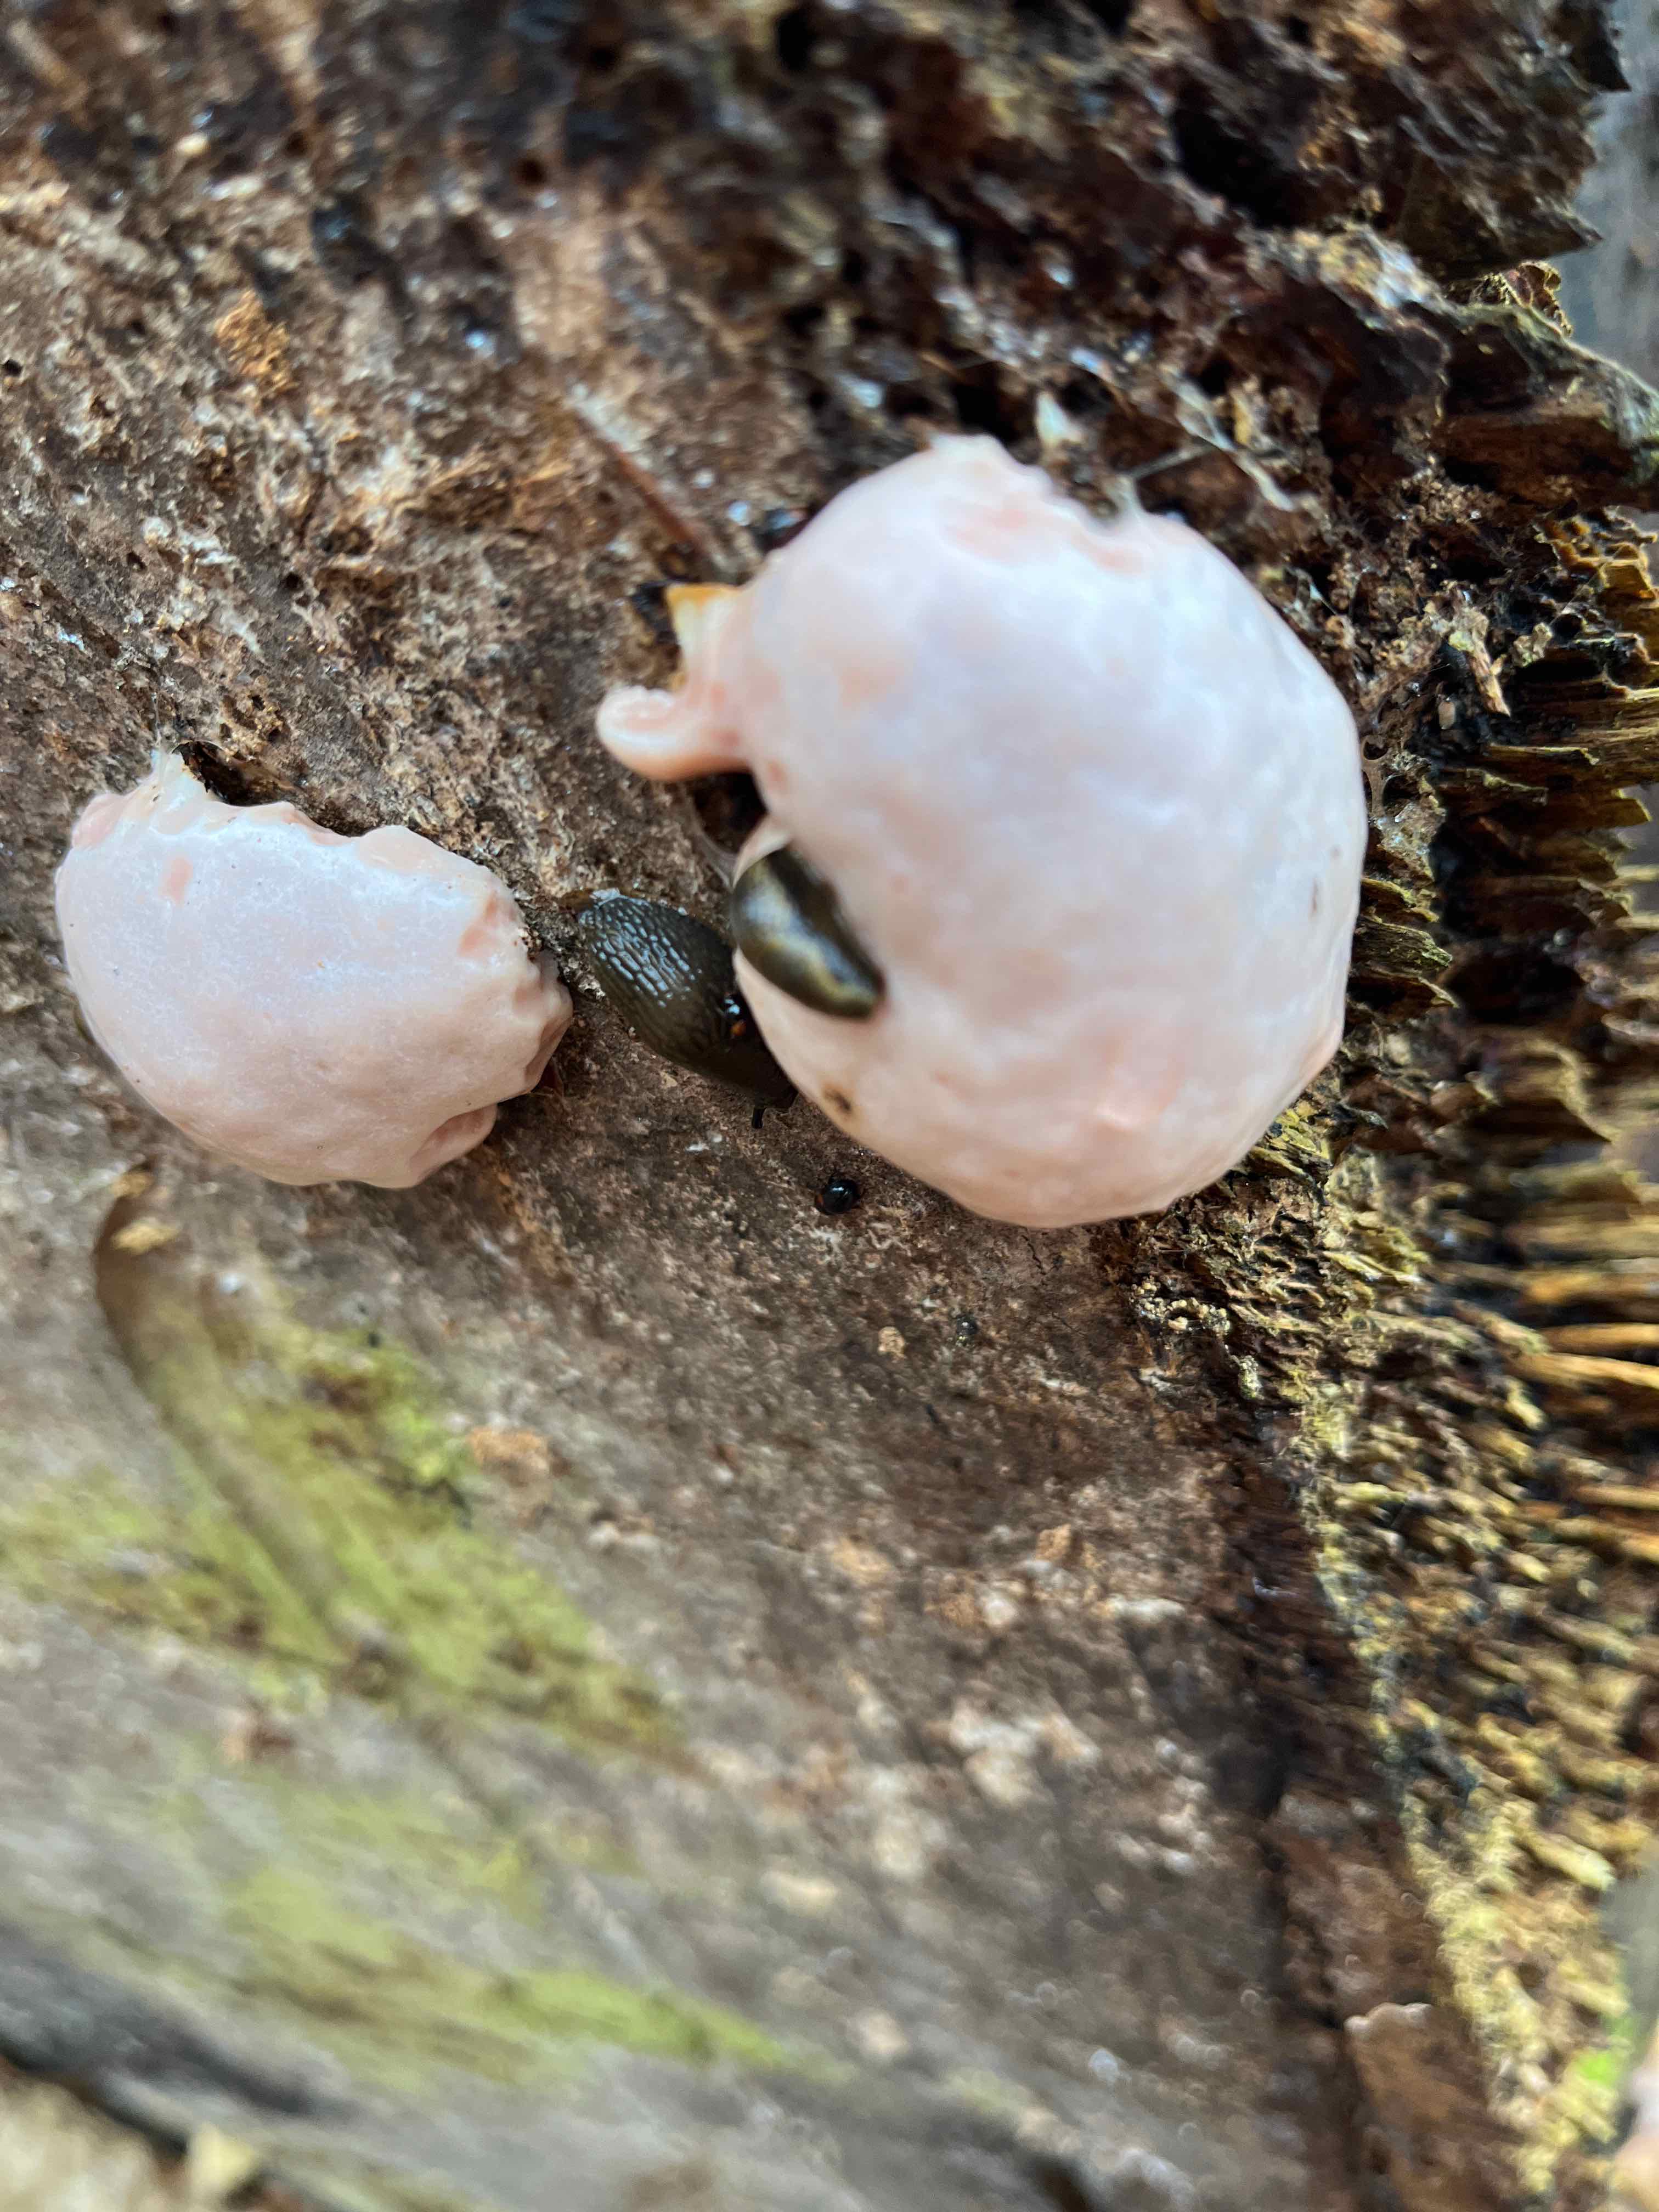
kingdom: Protozoa
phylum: Mycetozoa
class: Myxomycetes
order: Cribrariales
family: Tubiferaceae
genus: Reticularia
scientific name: Reticularia lycoperdon
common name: skinnende støvpude
